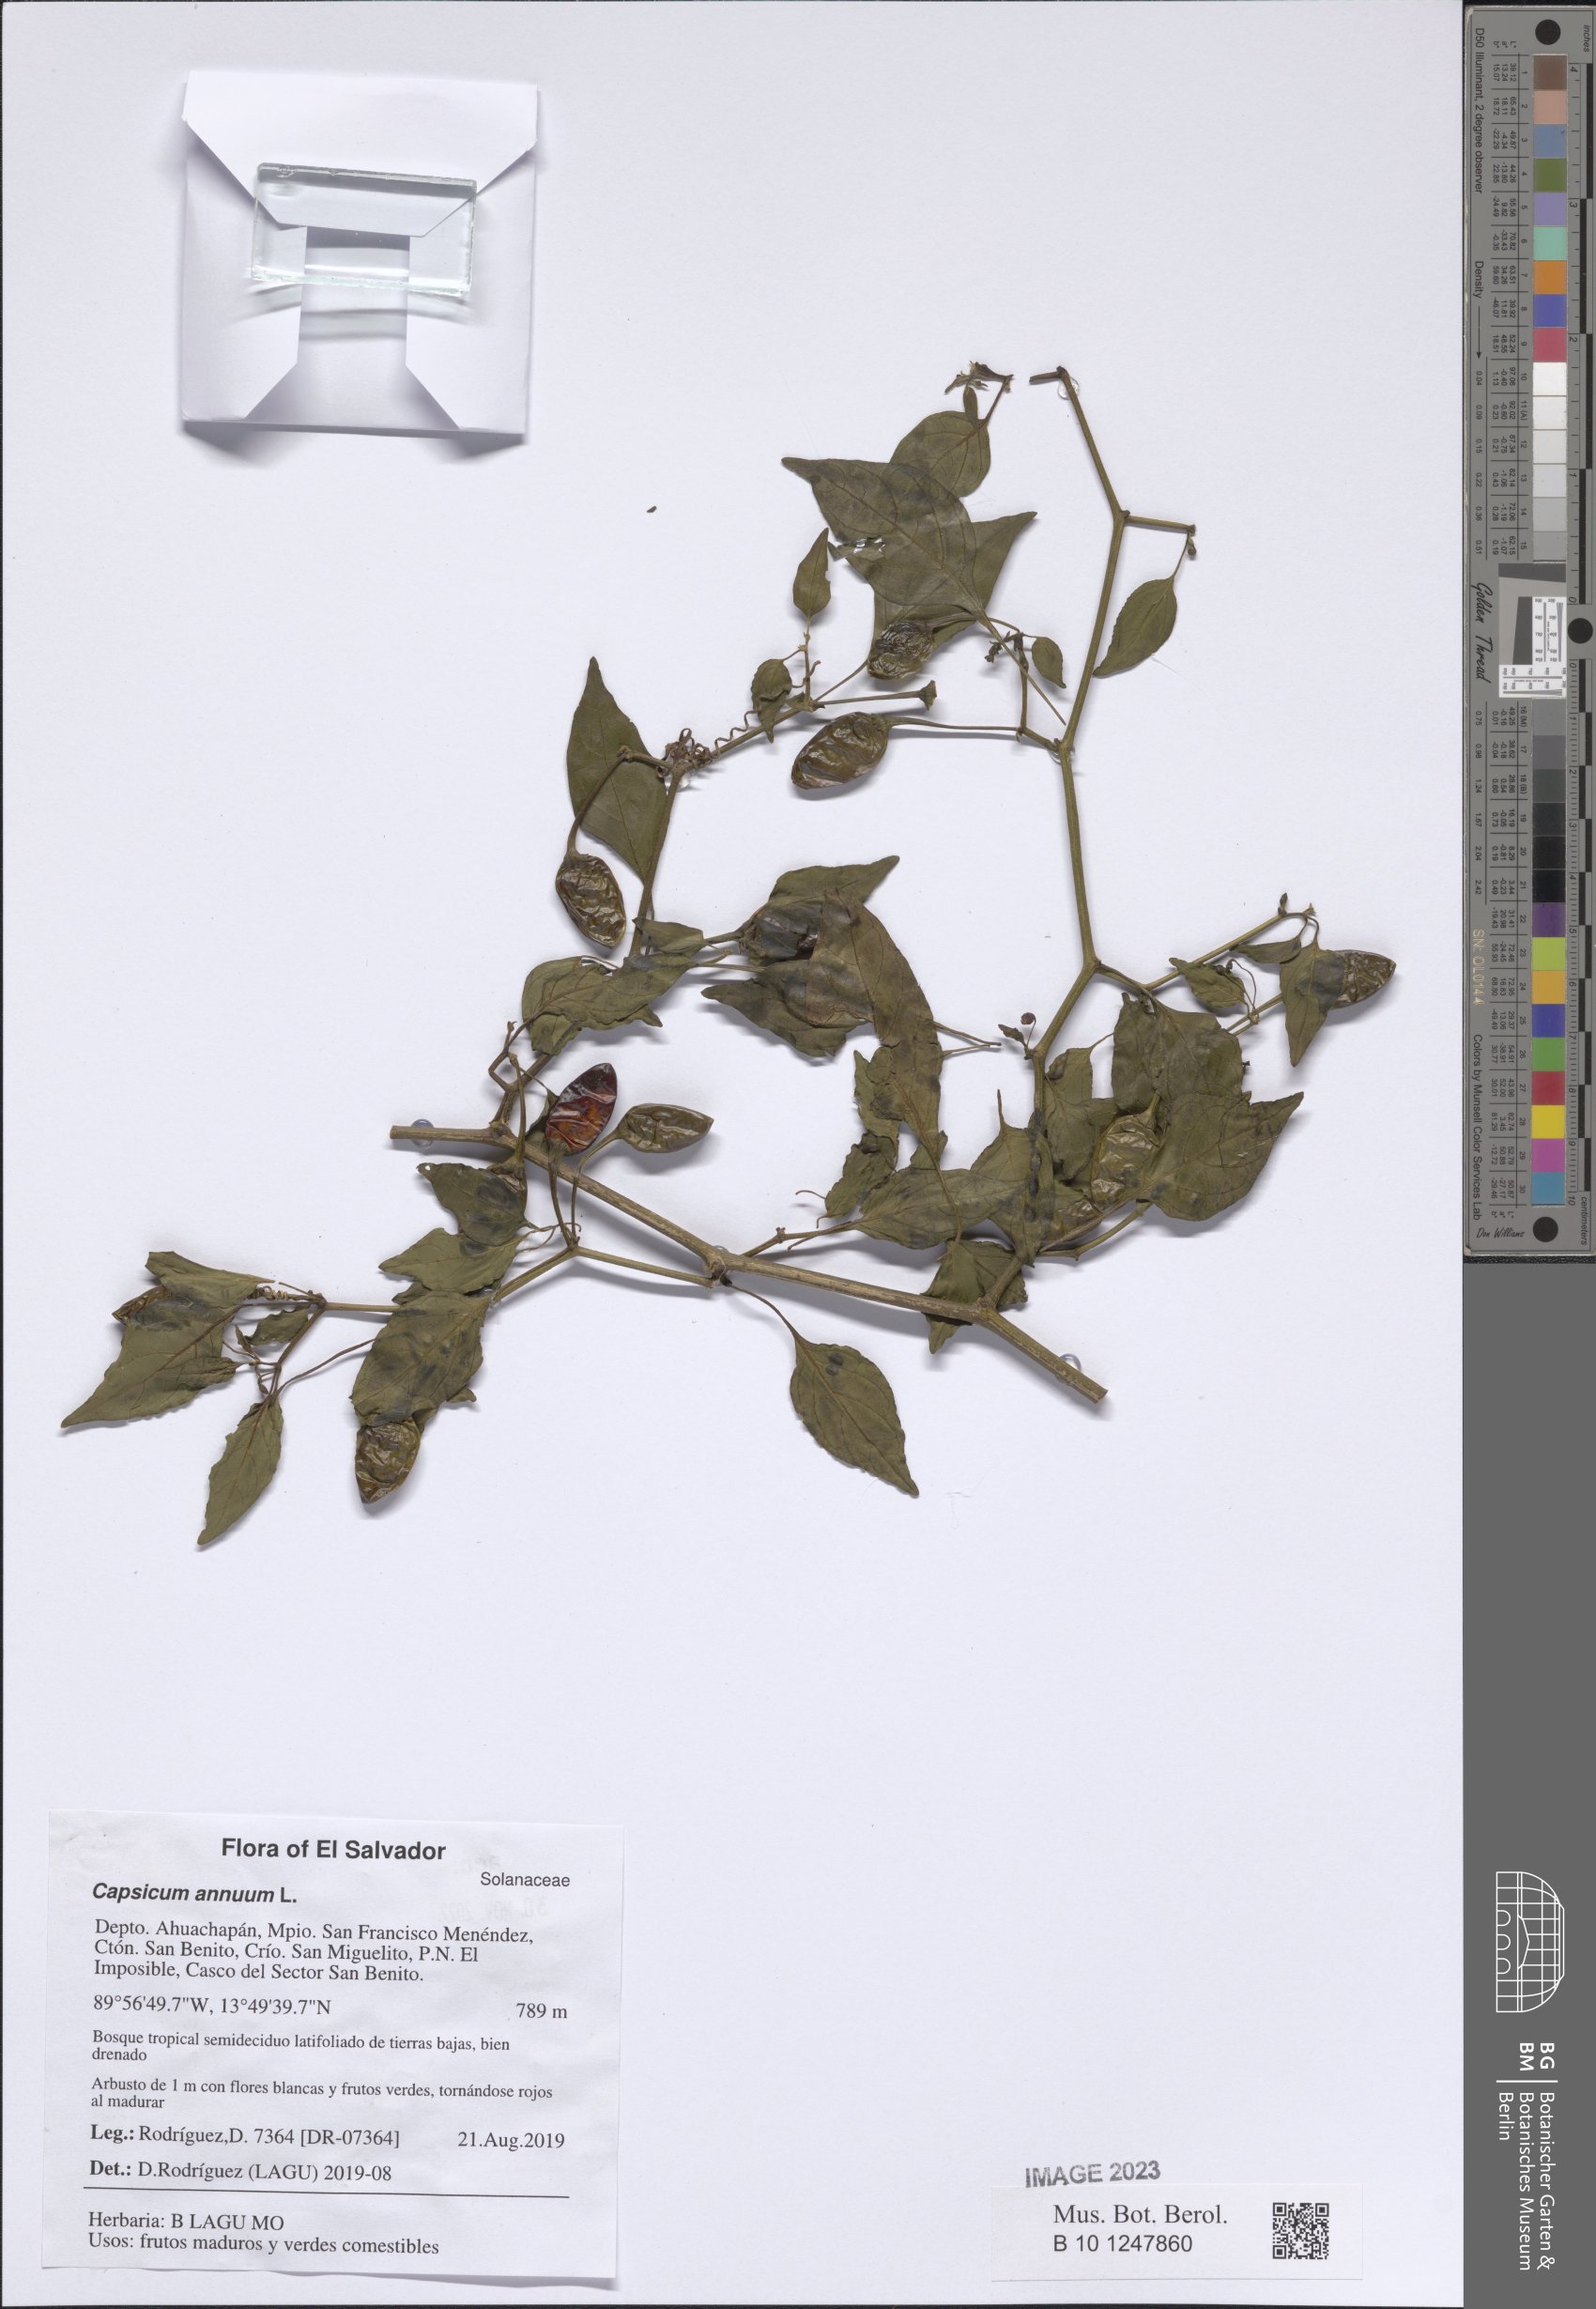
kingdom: Plantae
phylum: Tracheophyta
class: Magnoliopsida
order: Solanales
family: Solanaceae
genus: Capsicum
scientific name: Capsicum annuum
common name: Sweet pepper
